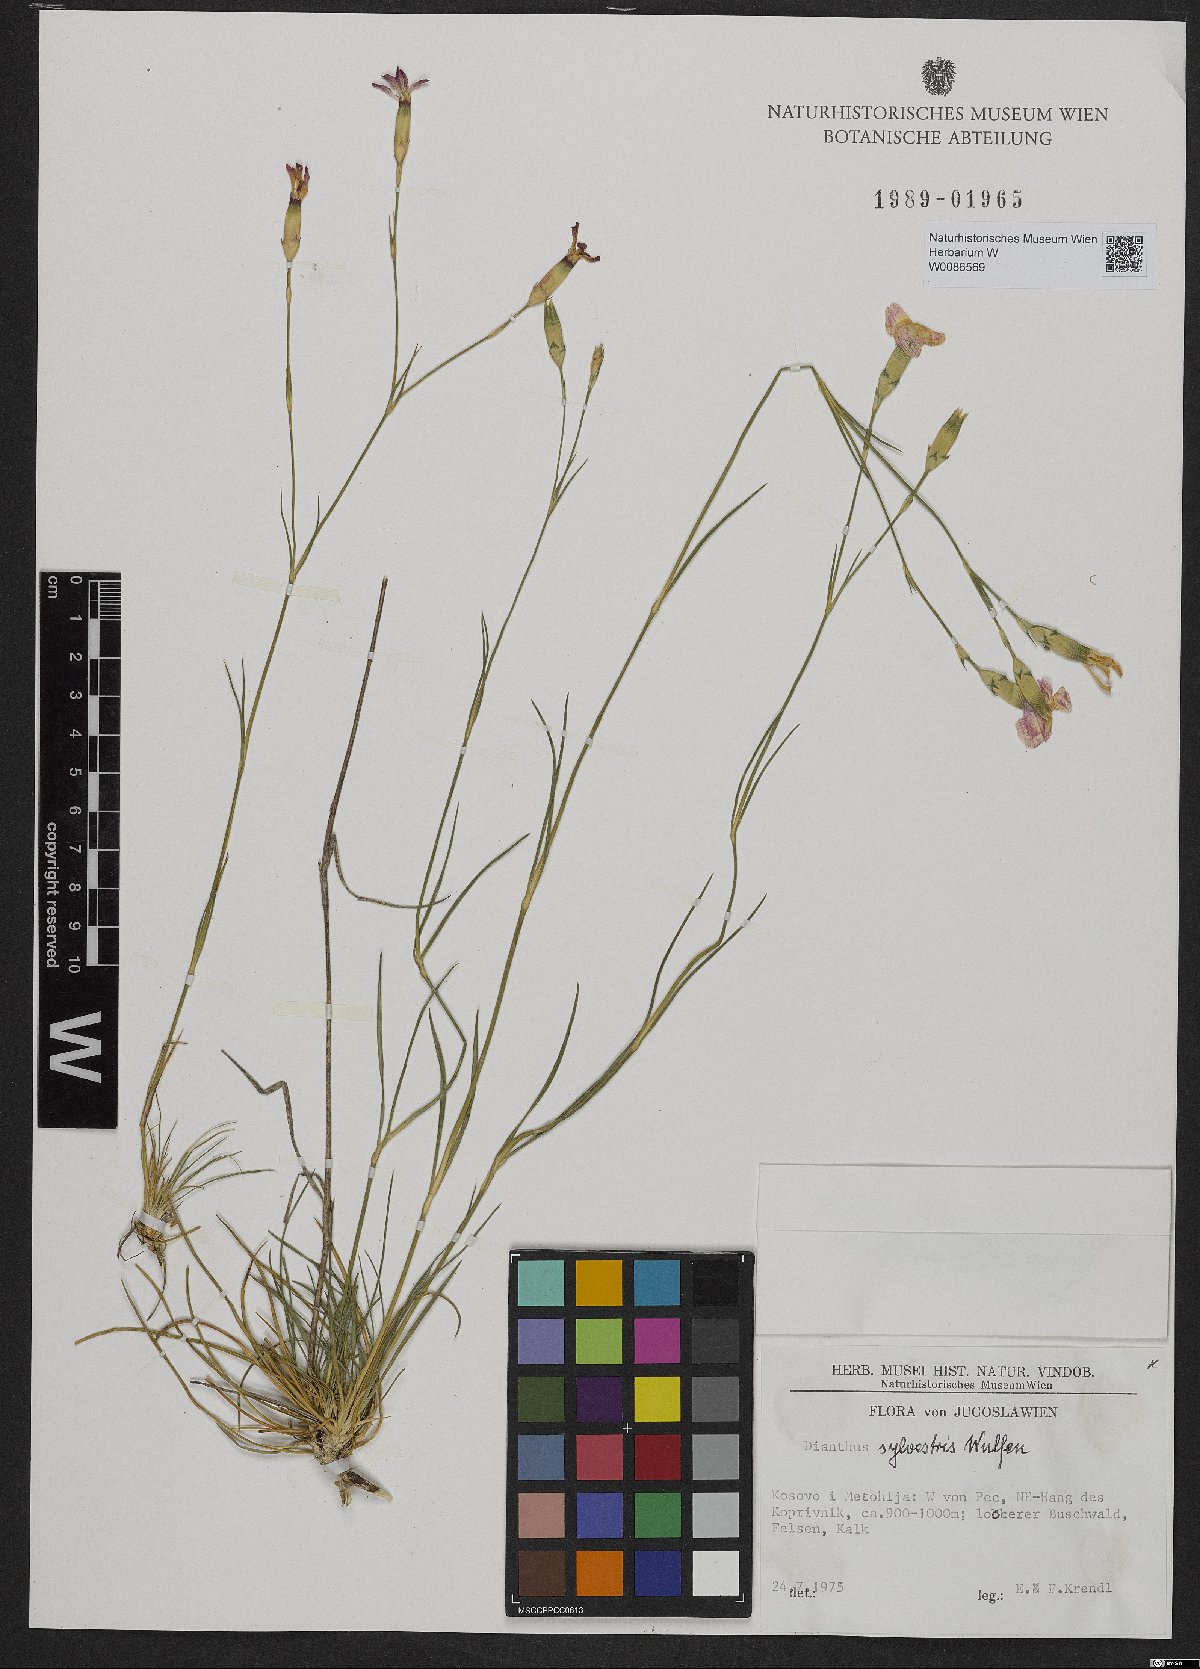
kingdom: Plantae
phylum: Tracheophyta
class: Magnoliopsida
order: Caryophyllales
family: Caryophyllaceae
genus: Dianthus
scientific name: Dianthus sylvestris
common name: Wood pink
